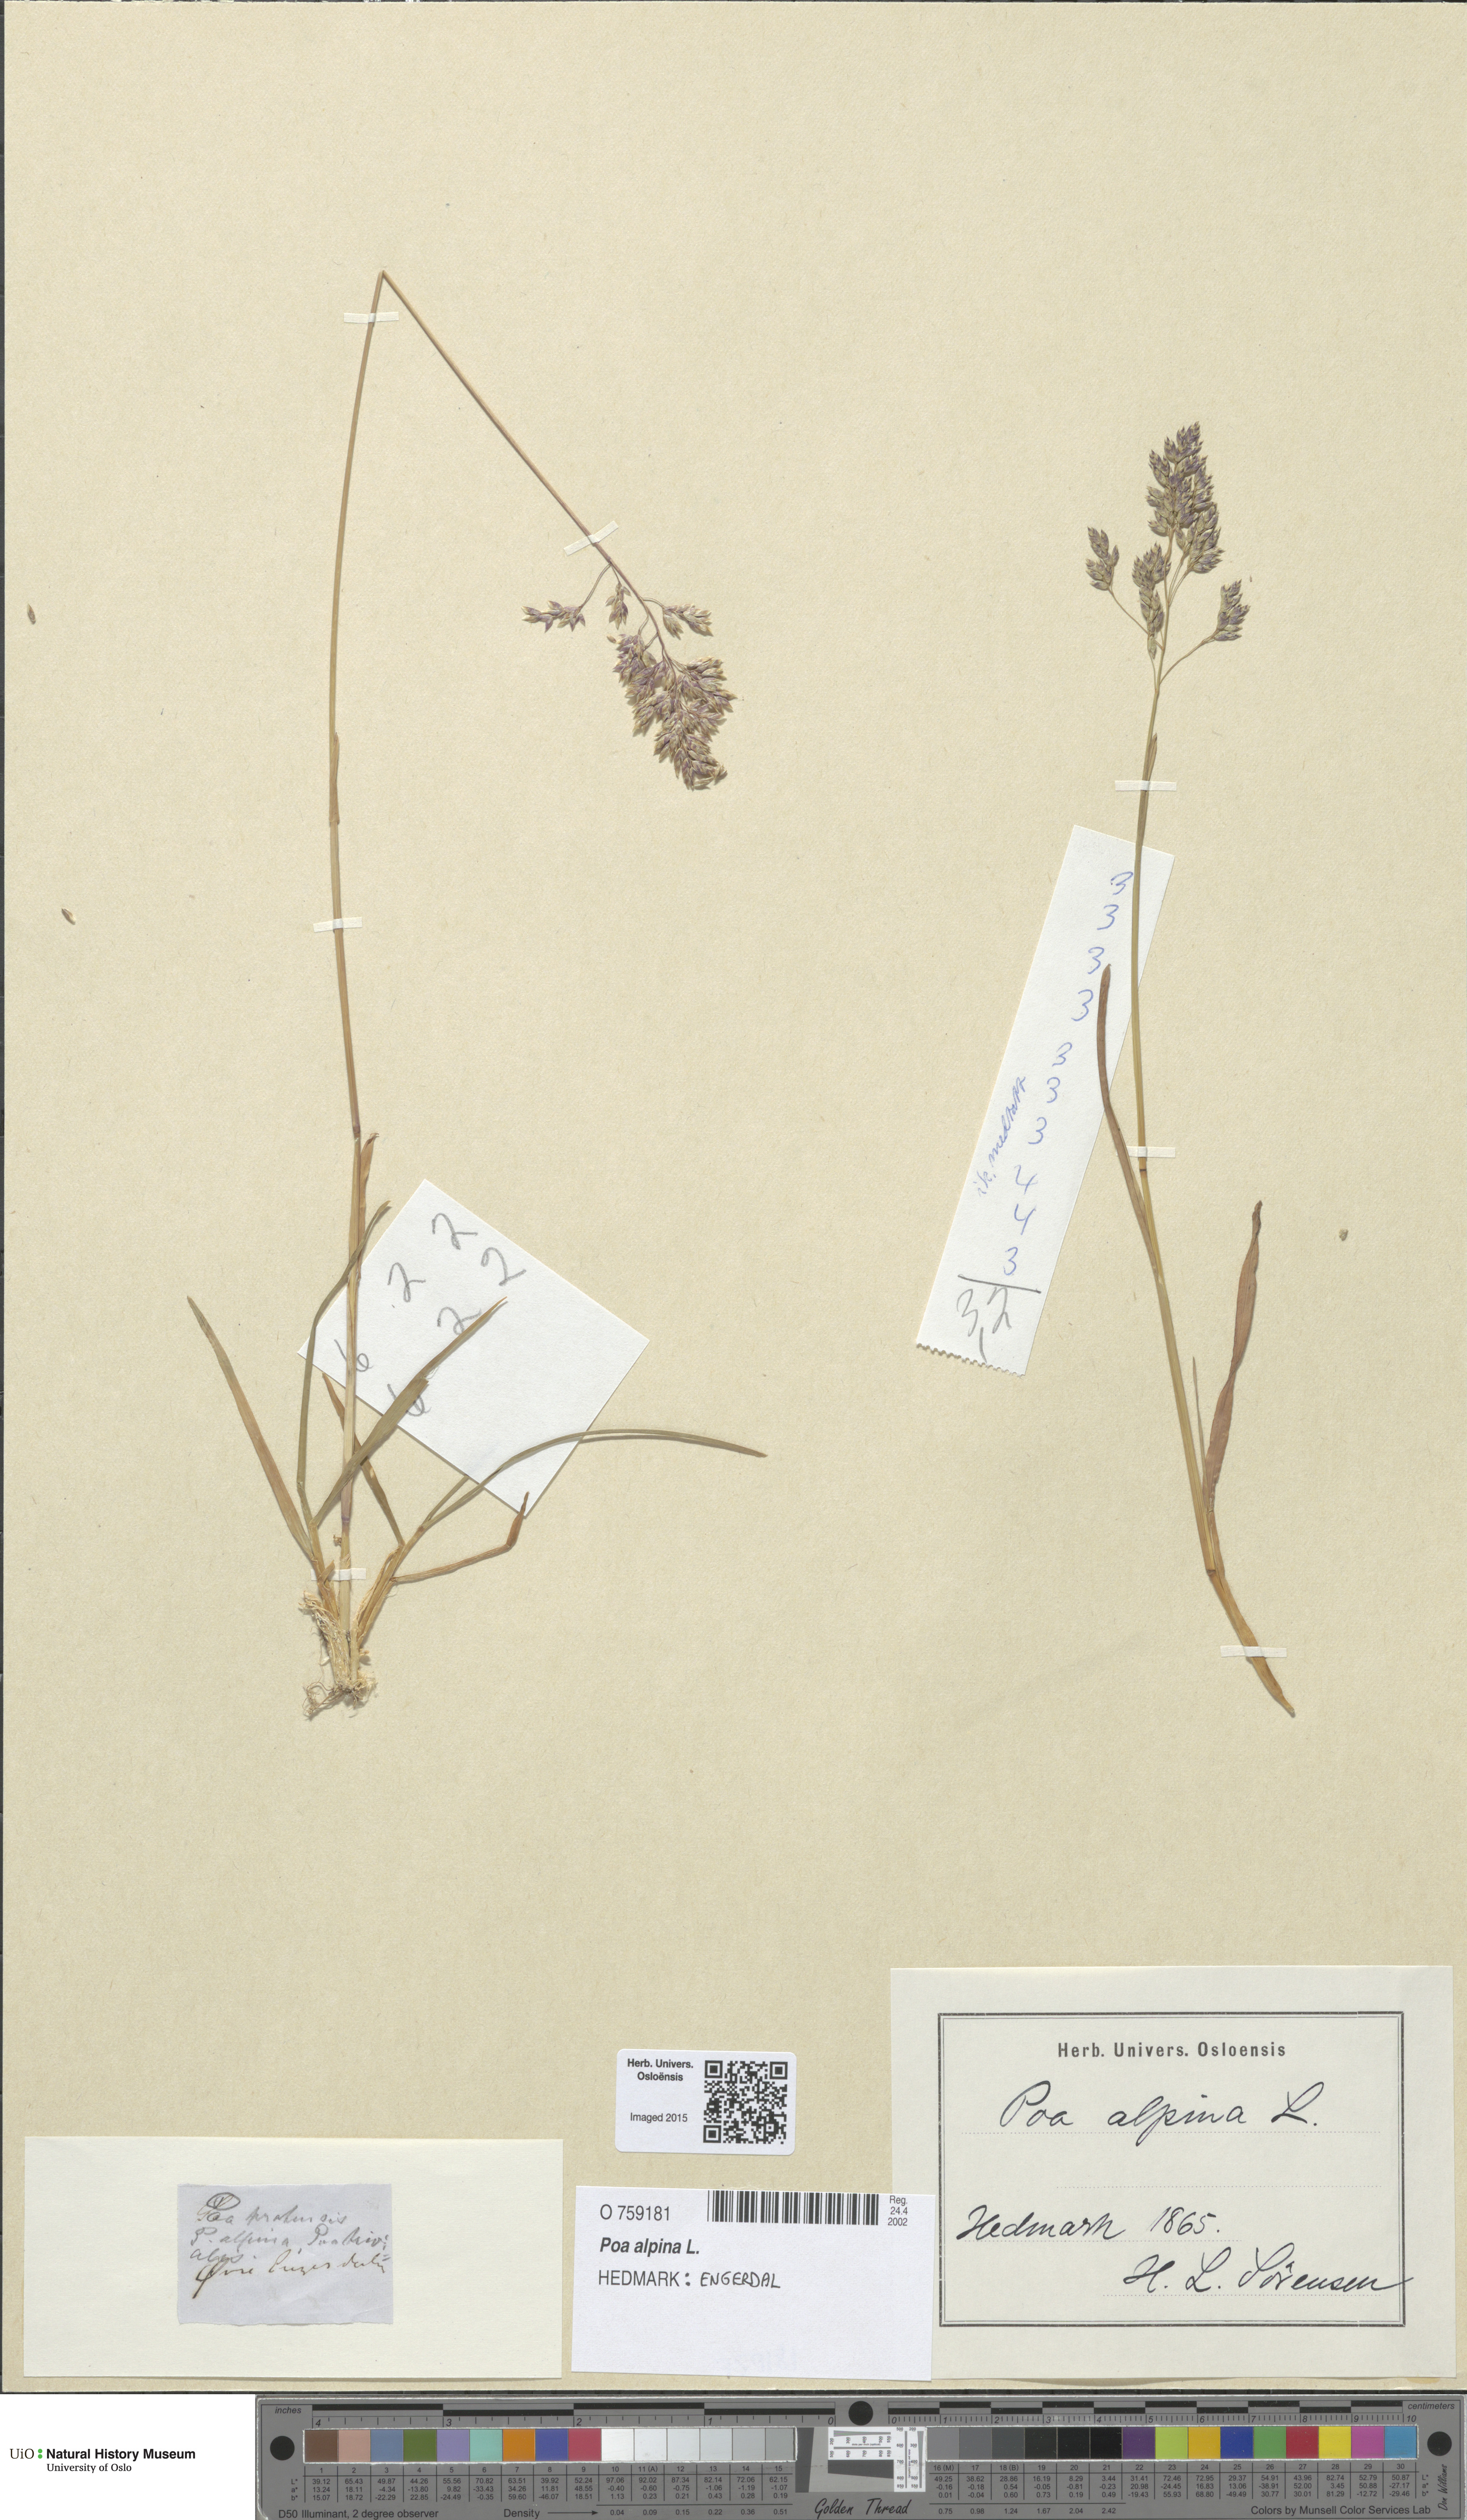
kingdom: Plantae
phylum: Tracheophyta
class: Liliopsida
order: Poales
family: Poaceae
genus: Poa
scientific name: Poa alpina
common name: Alpine bluegrass
